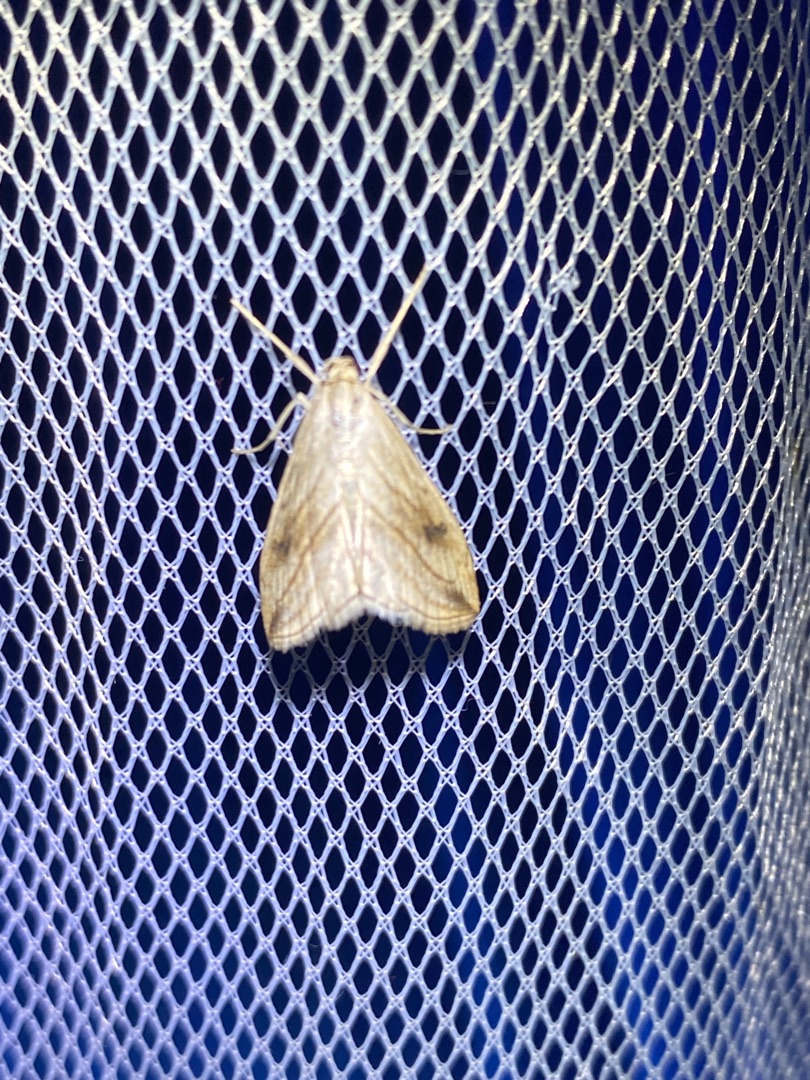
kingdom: Animalia
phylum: Arthropoda
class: Insecta
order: Lepidoptera
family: Crambidae
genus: Evergestis
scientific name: Evergestis forficalis
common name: Kålhalvmøl
